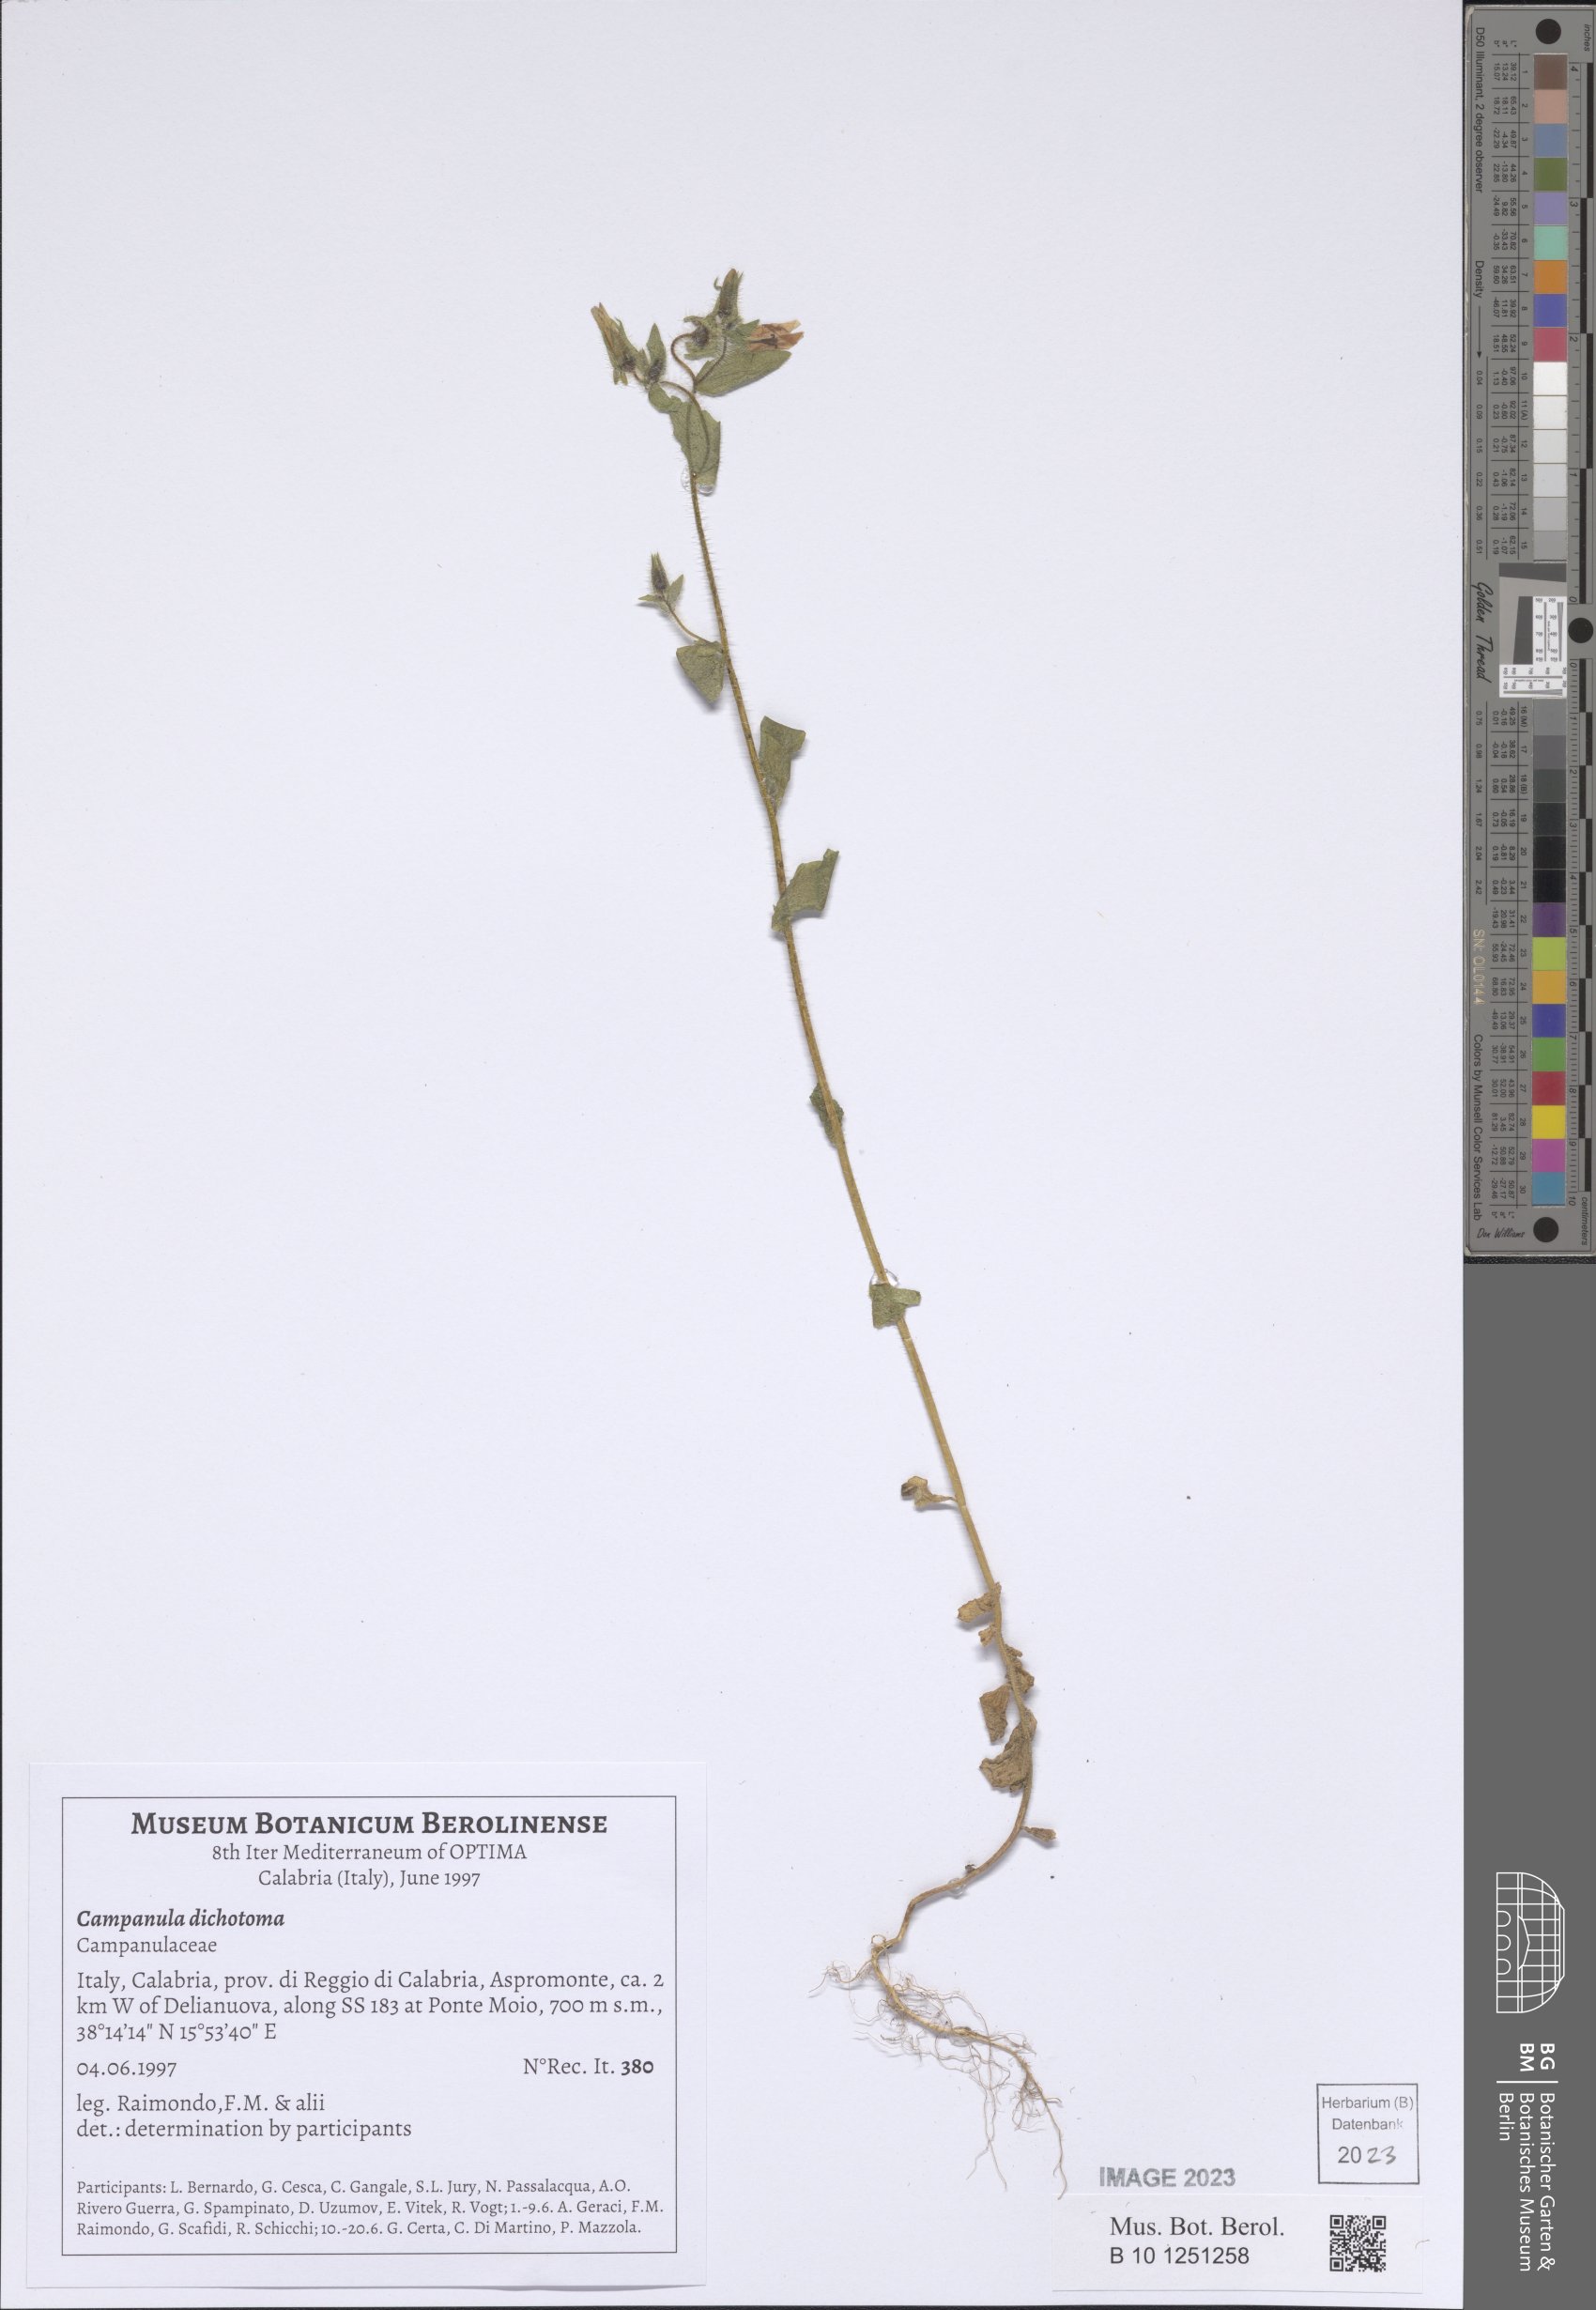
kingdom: Plantae
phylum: Tracheophyta
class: Magnoliopsida
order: Asterales
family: Campanulaceae
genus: Campanula
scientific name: Campanula dichotoma
